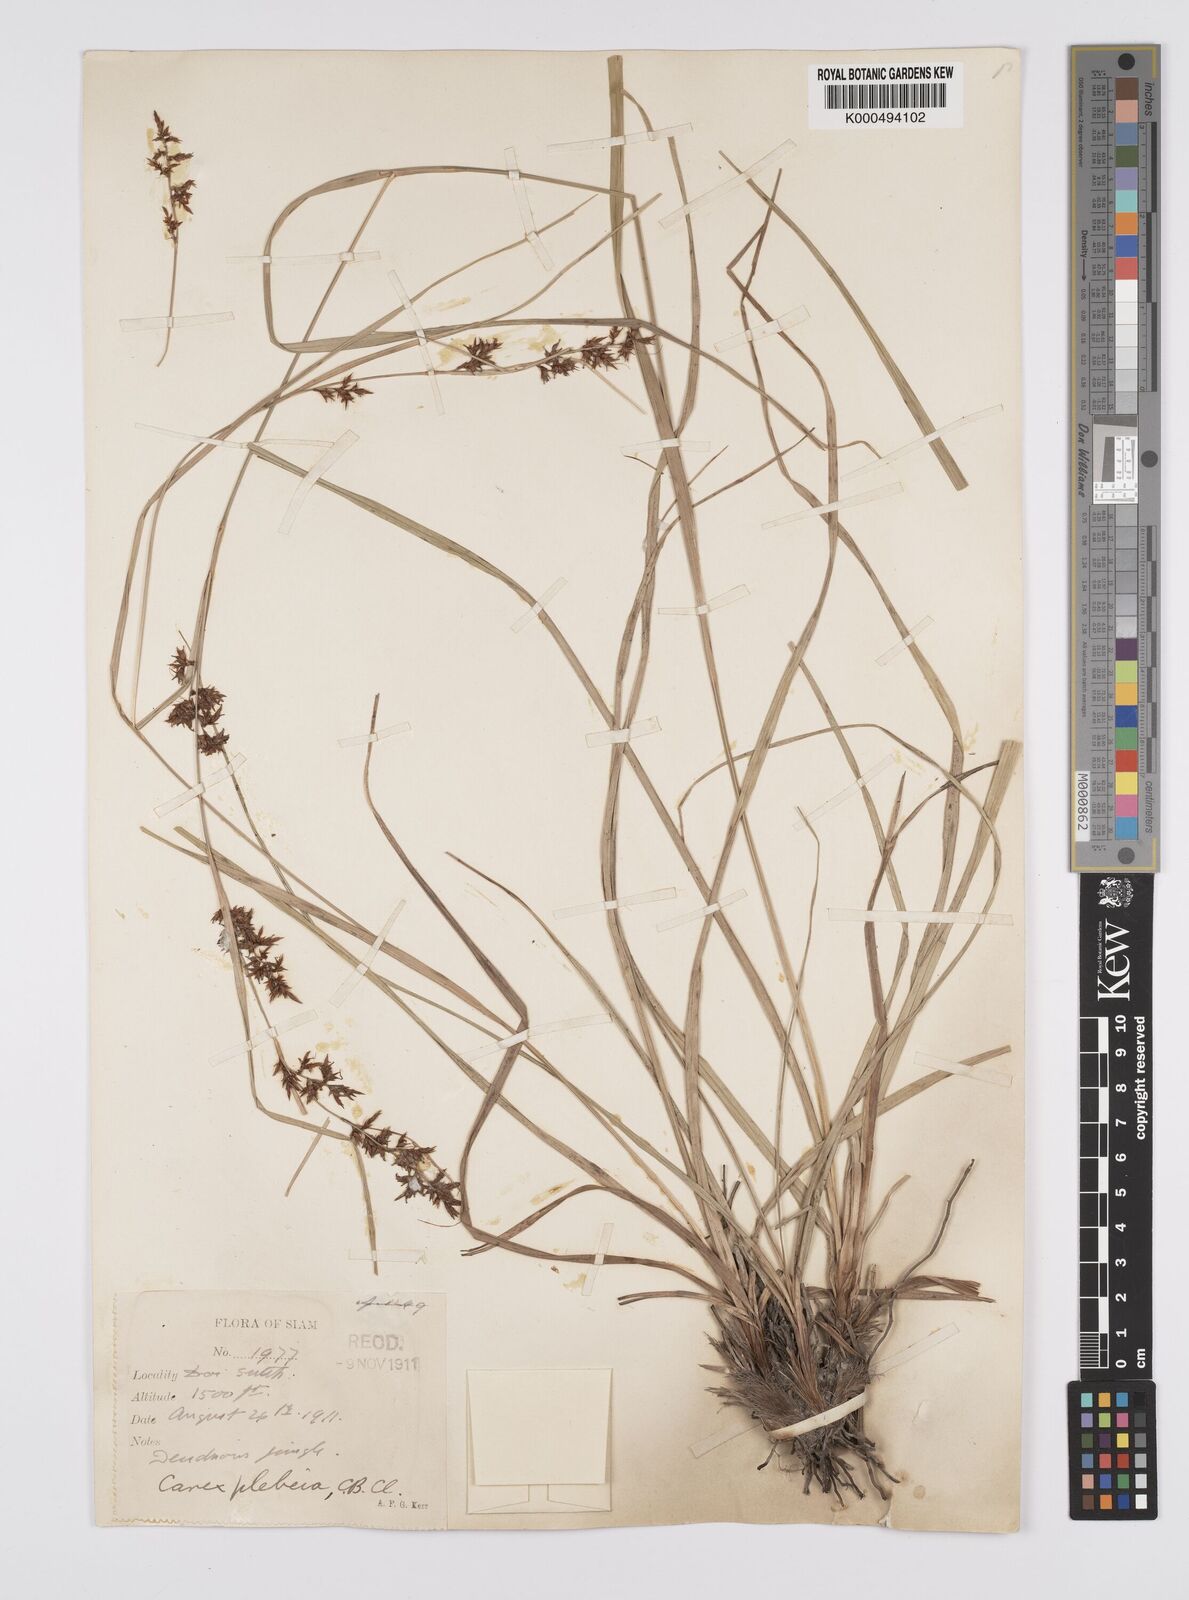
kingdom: Plantae
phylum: Tracheophyta
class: Liliopsida
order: Poales
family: Cyperaceae
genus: Carex
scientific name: Carex continua
